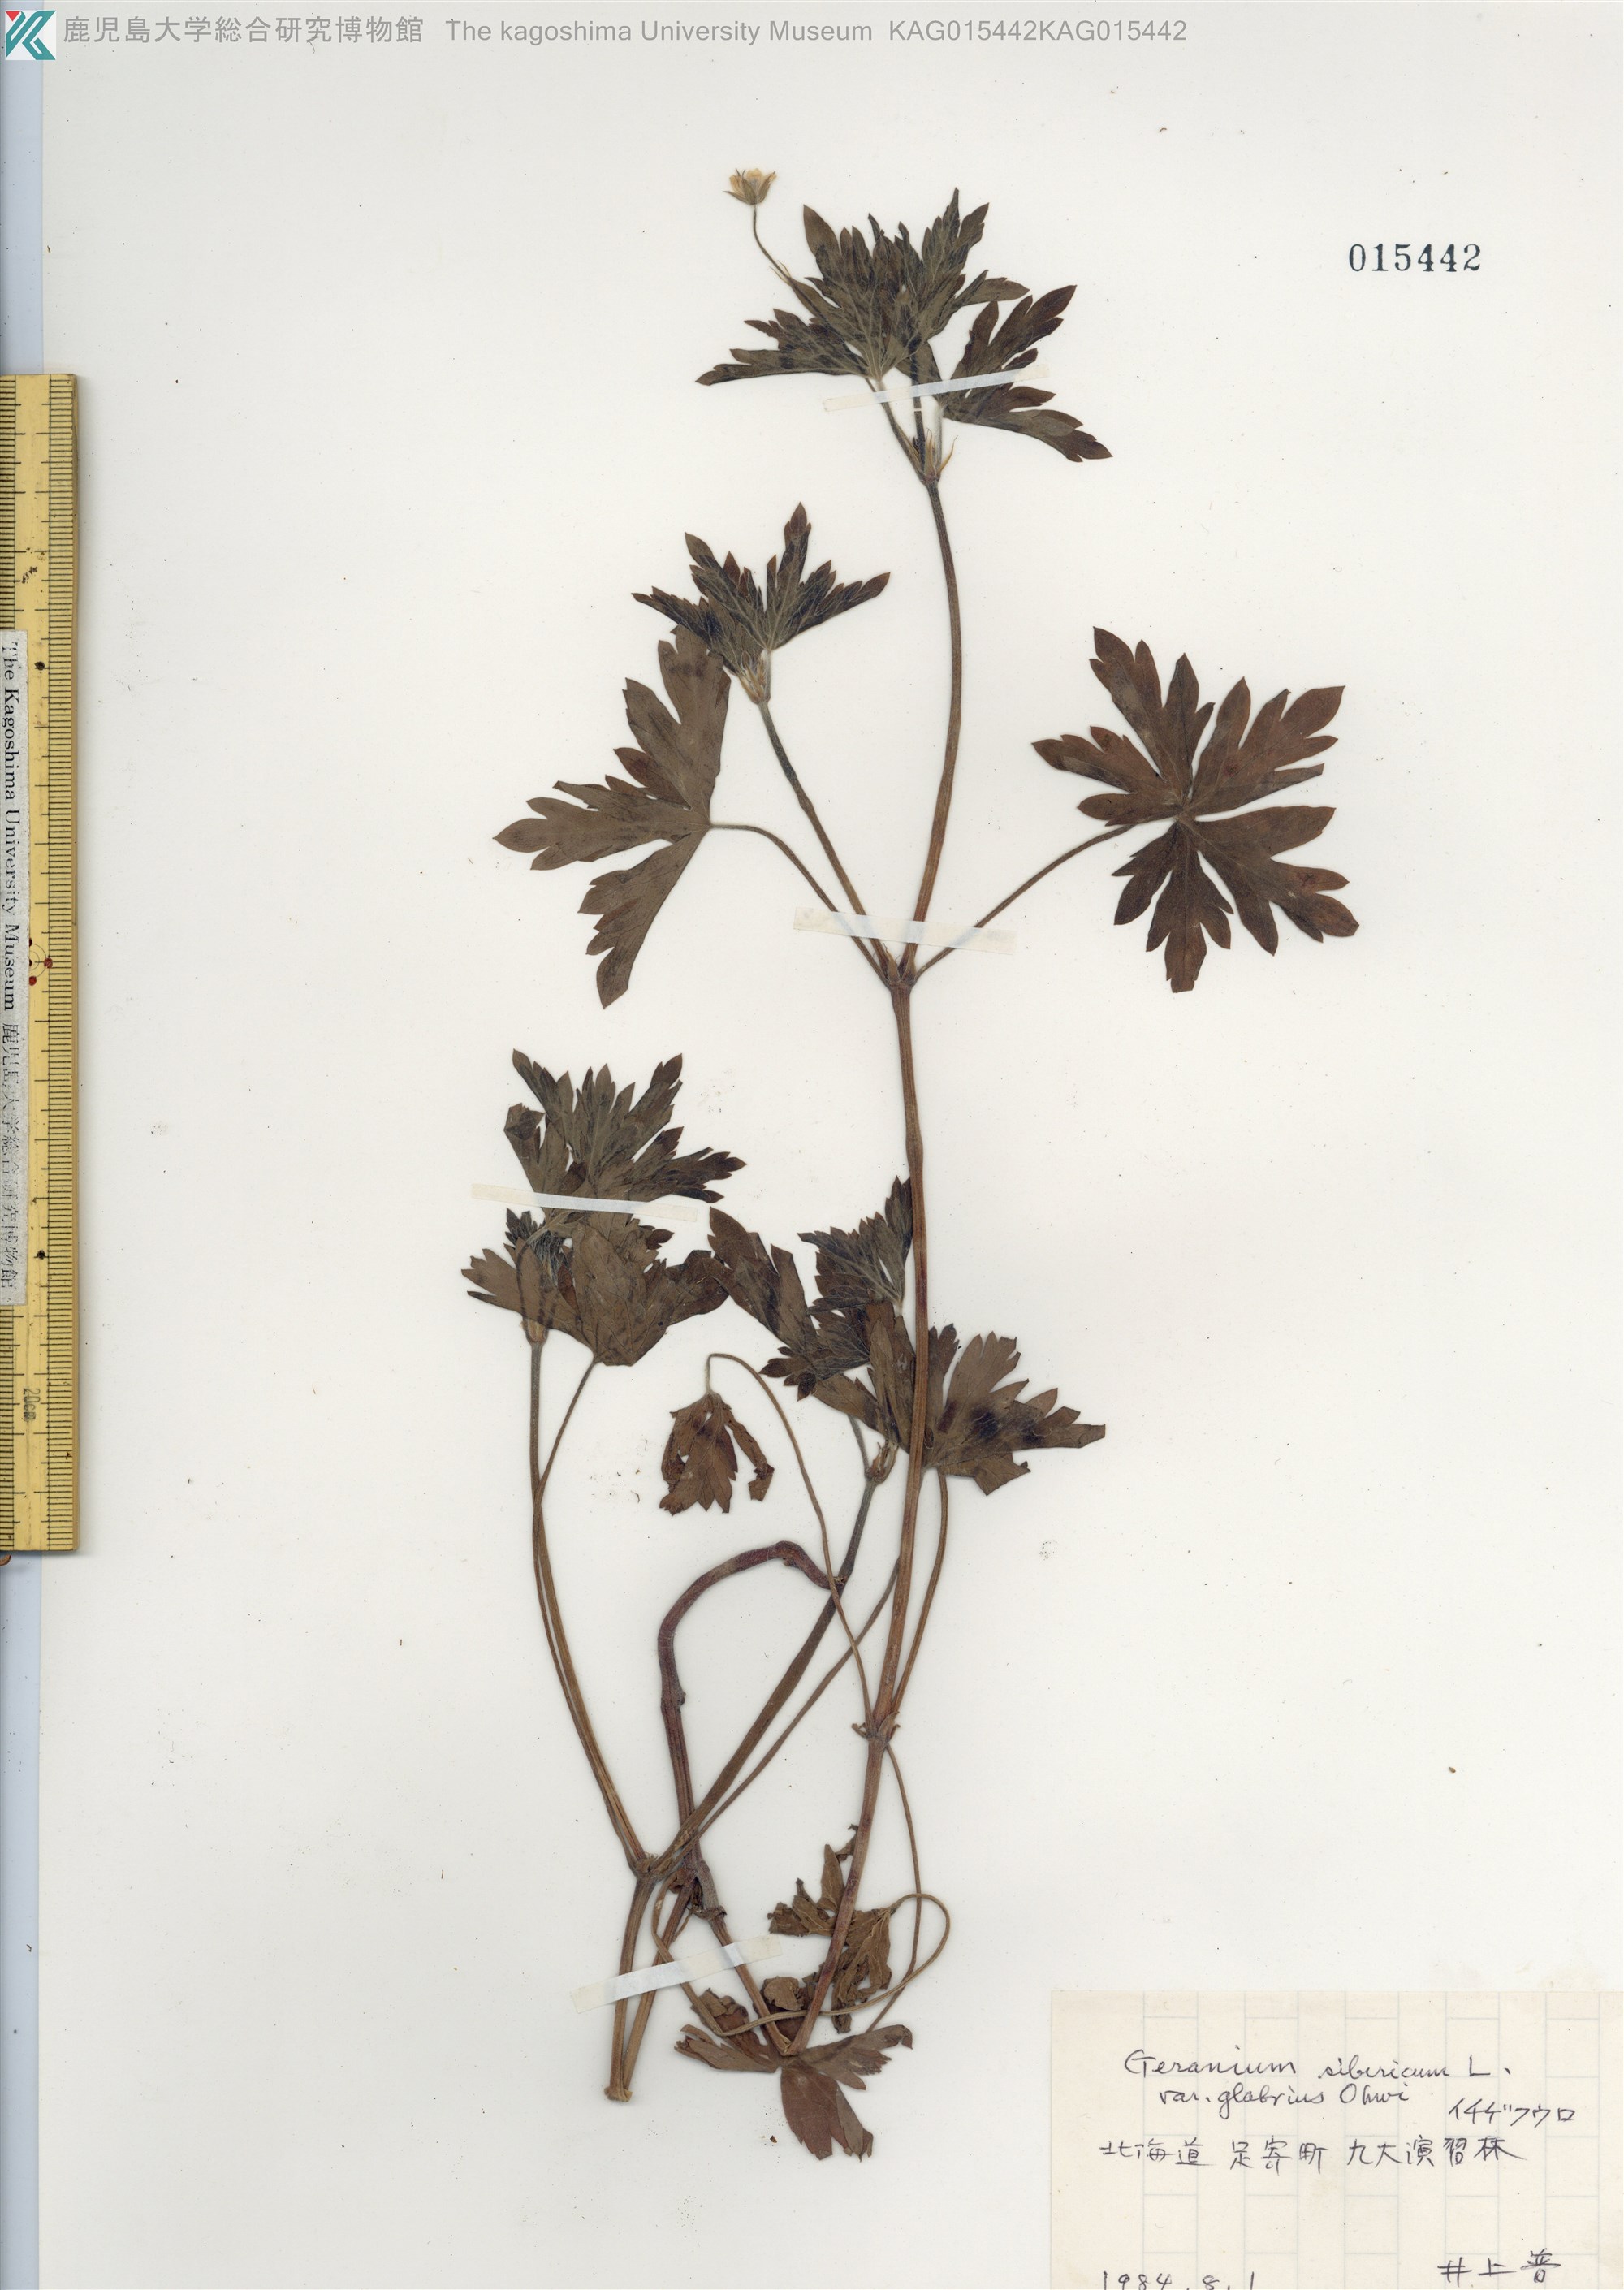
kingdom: Plantae
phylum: Tracheophyta
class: Magnoliopsida
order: Geraniales
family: Geraniaceae
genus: Geranium
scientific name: Geranium sibiricum
